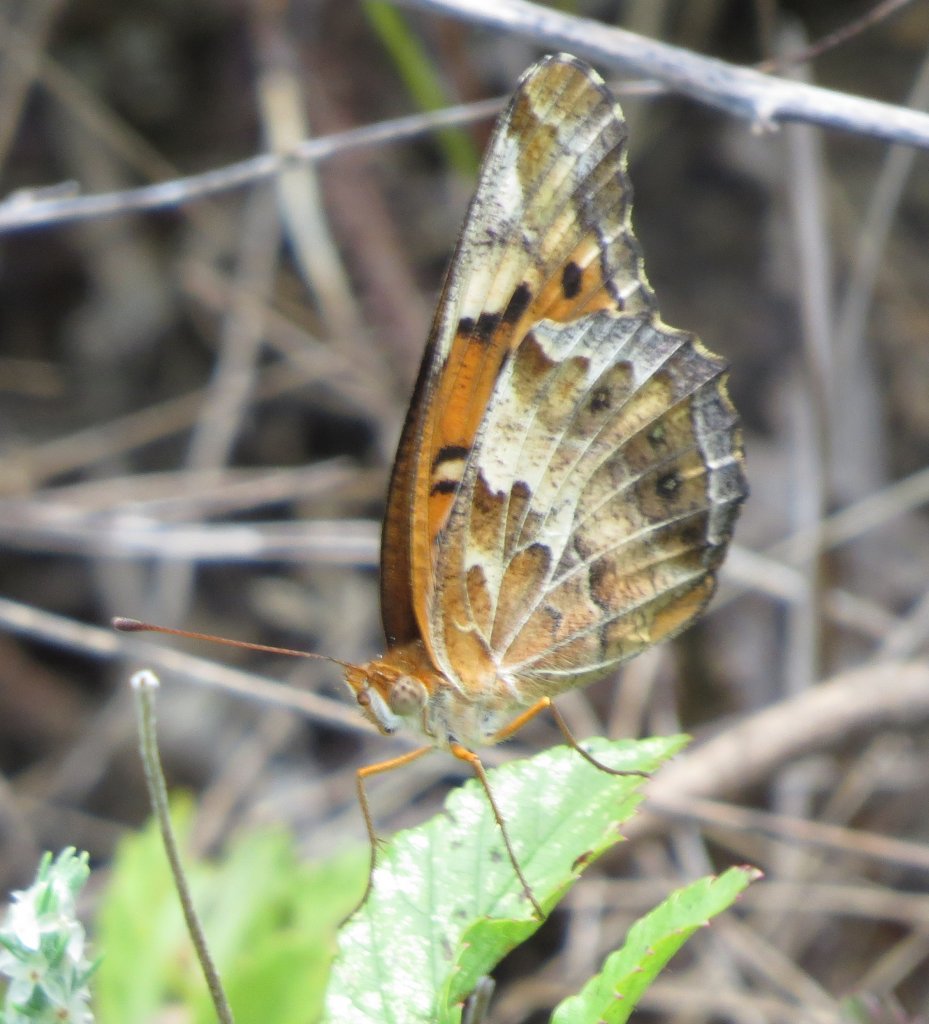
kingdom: Animalia
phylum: Arthropoda
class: Insecta
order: Lepidoptera
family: Nymphalidae
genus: Euptoieta
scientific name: Euptoieta claudia
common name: Variegated Fritillary
